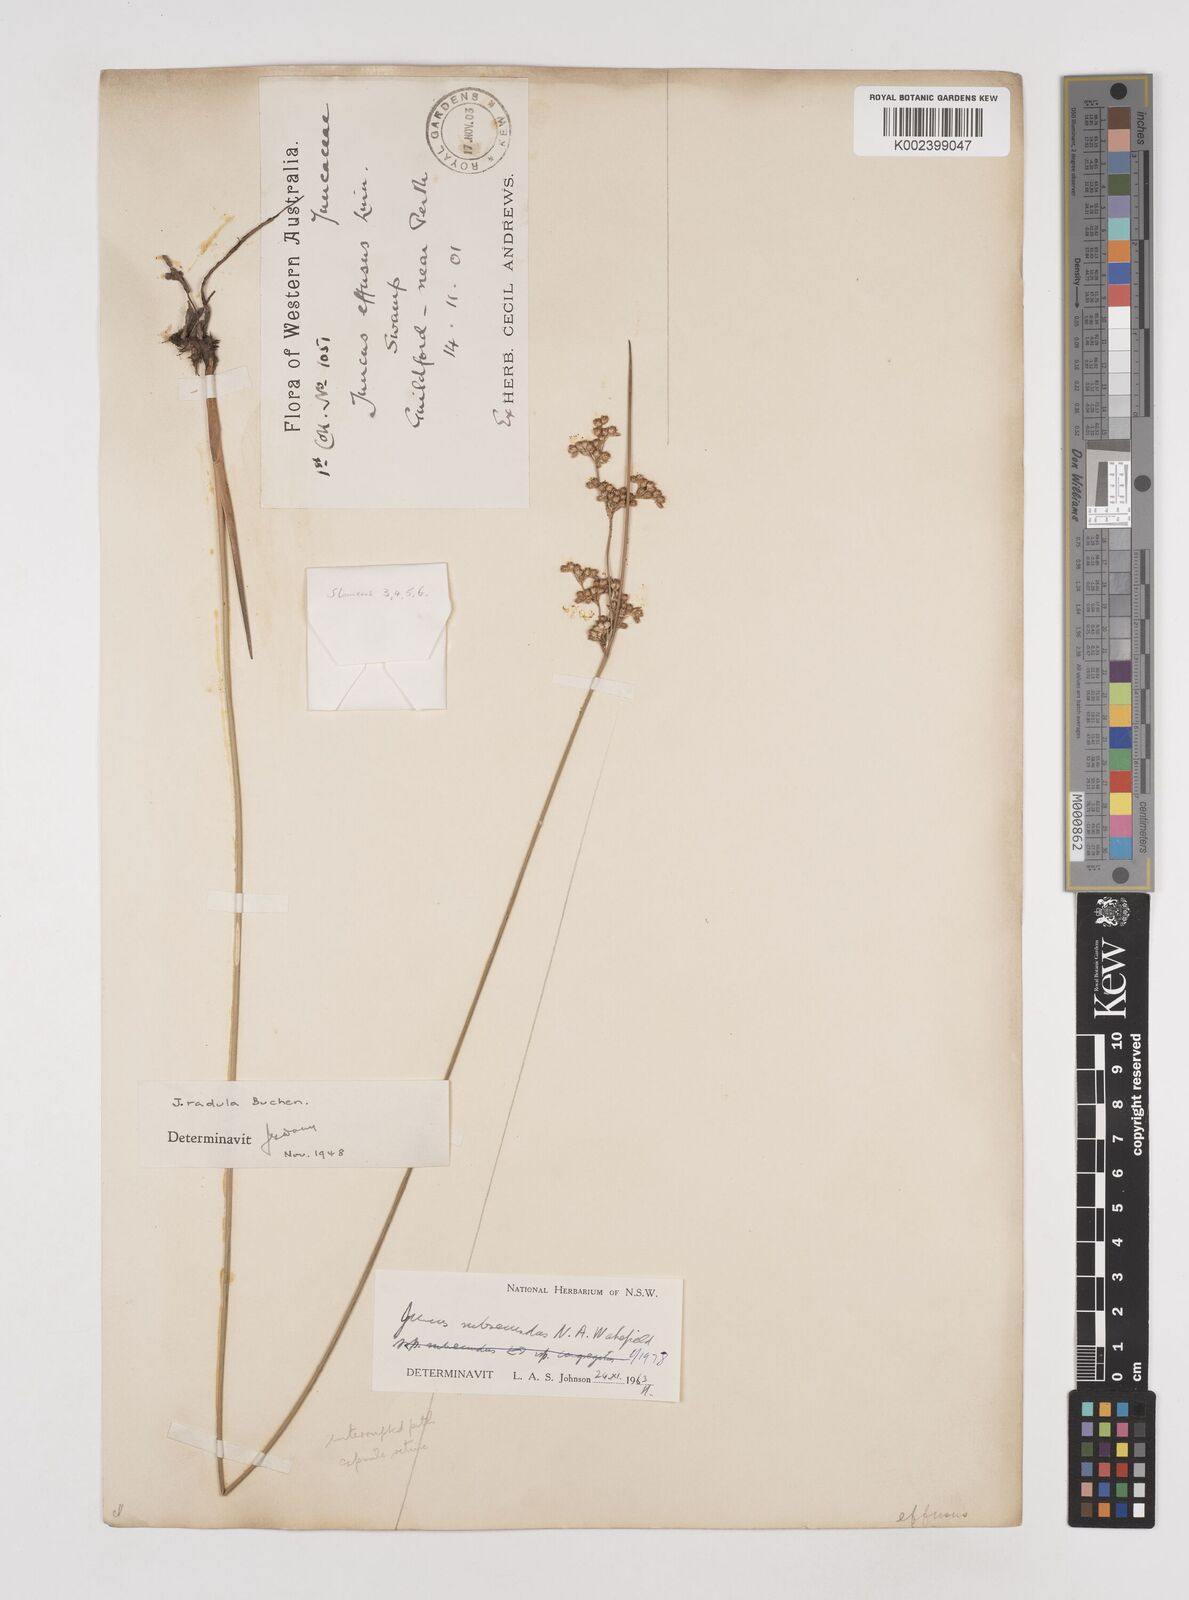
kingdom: Plantae
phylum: Tracheophyta
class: Liliopsida
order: Poales
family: Juncaceae
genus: Juncus
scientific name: Juncus subsecundus
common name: Fingered rush
